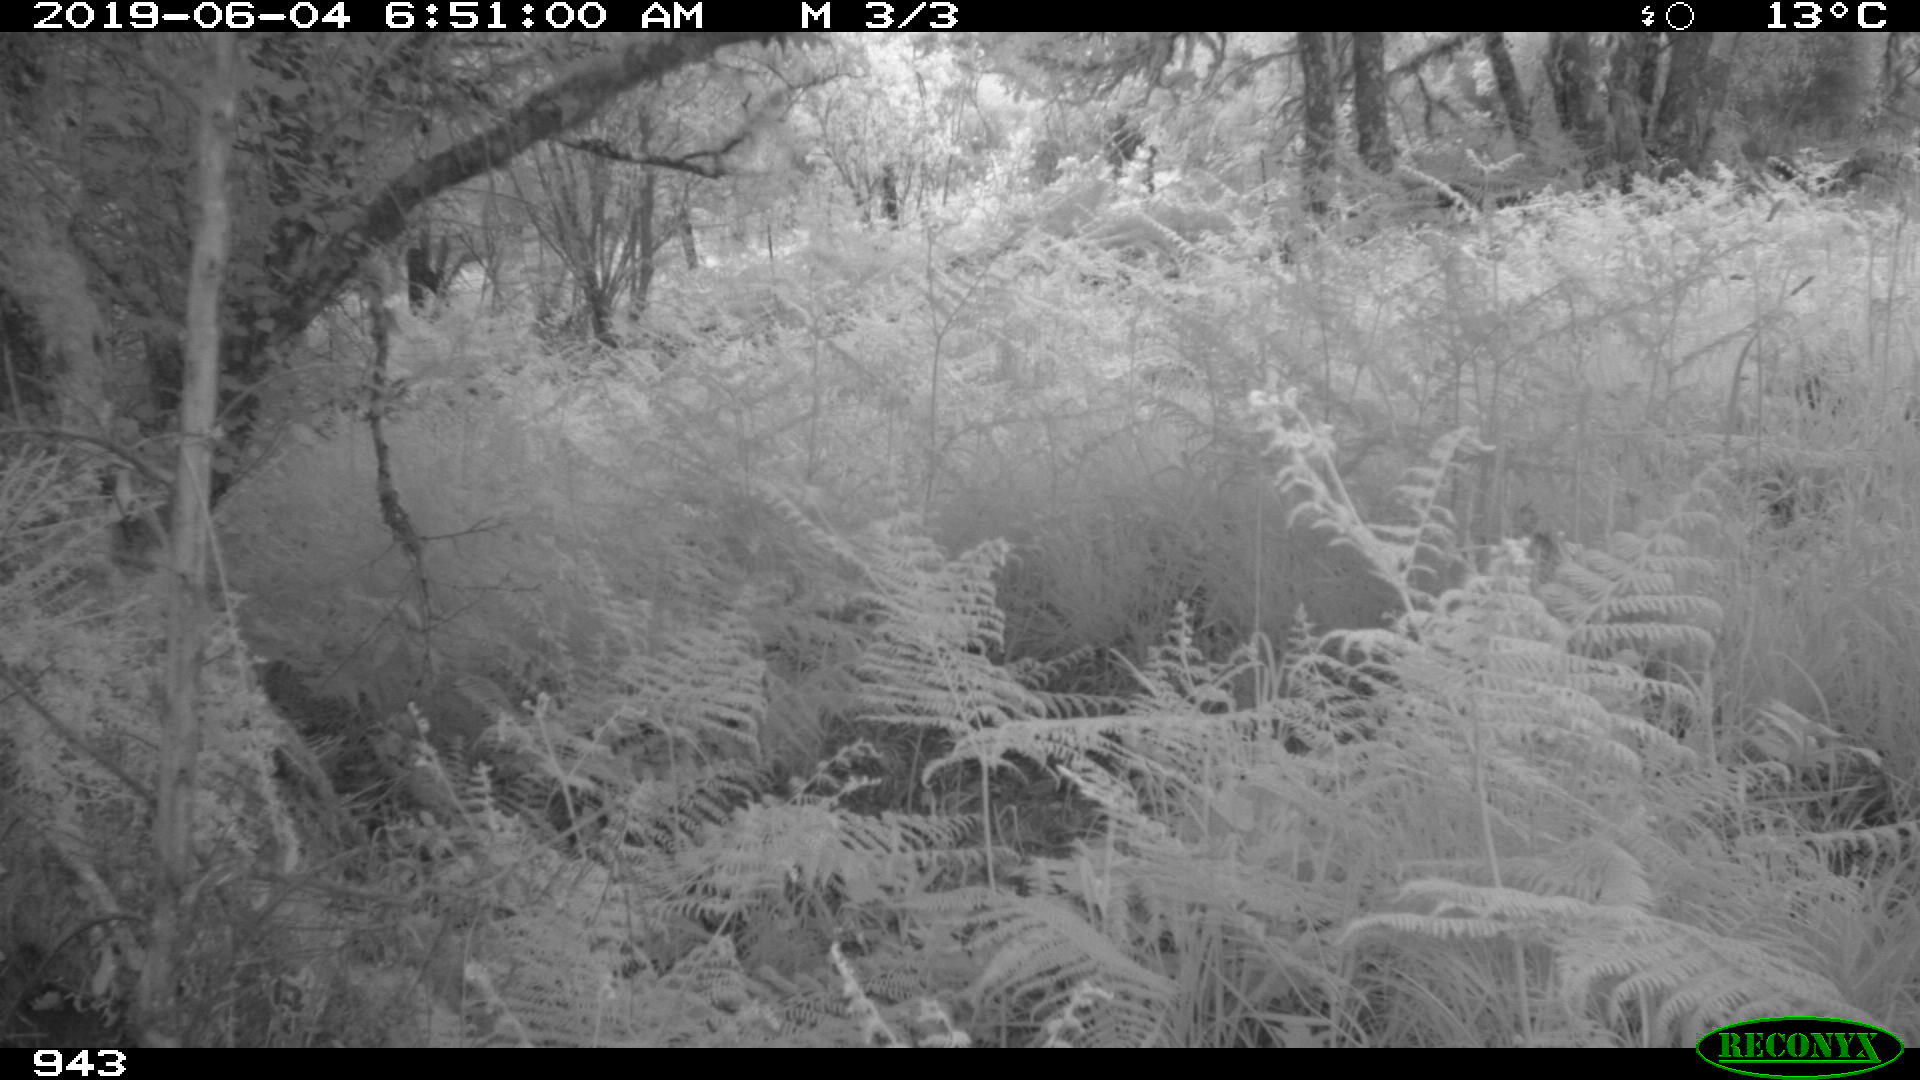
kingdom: Animalia
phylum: Chordata
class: Mammalia
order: Artiodactyla
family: Cervidae
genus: Capreolus
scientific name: Capreolus capreolus
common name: Western roe deer
